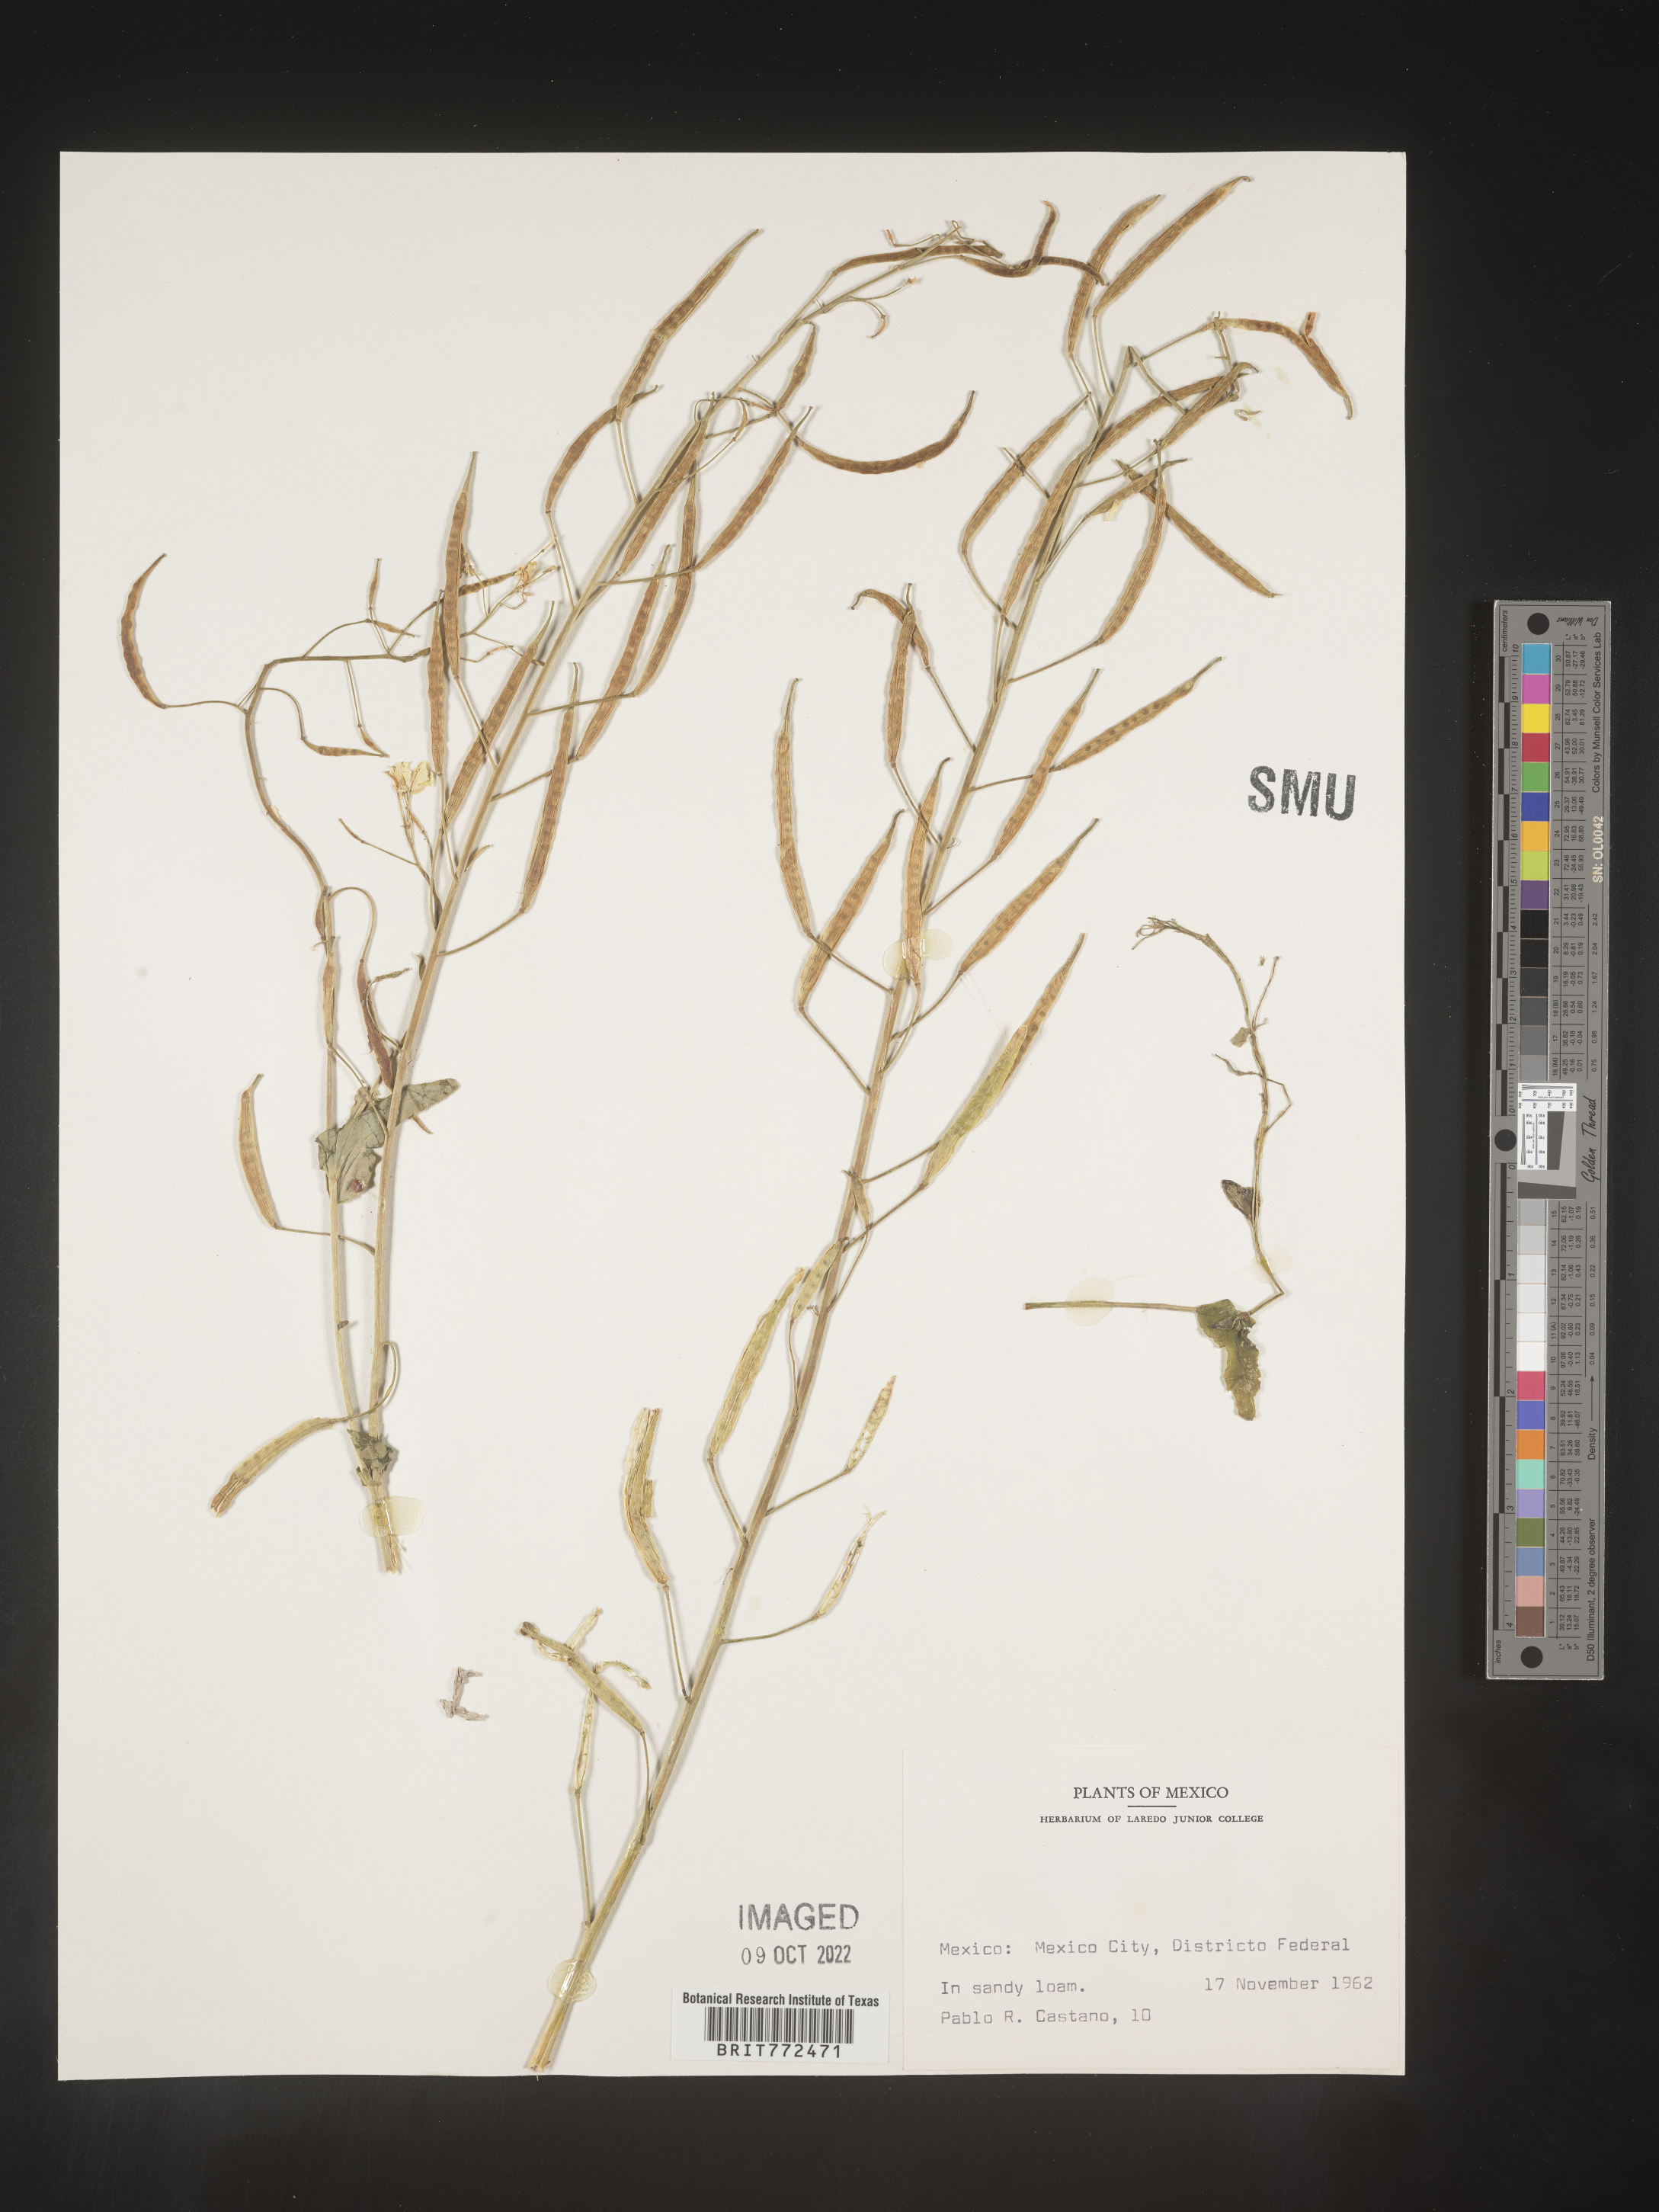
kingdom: Plantae
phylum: Tracheophyta
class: Magnoliopsida
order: Brassicales
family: Brassicaceae
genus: Brassica
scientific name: Brassica
